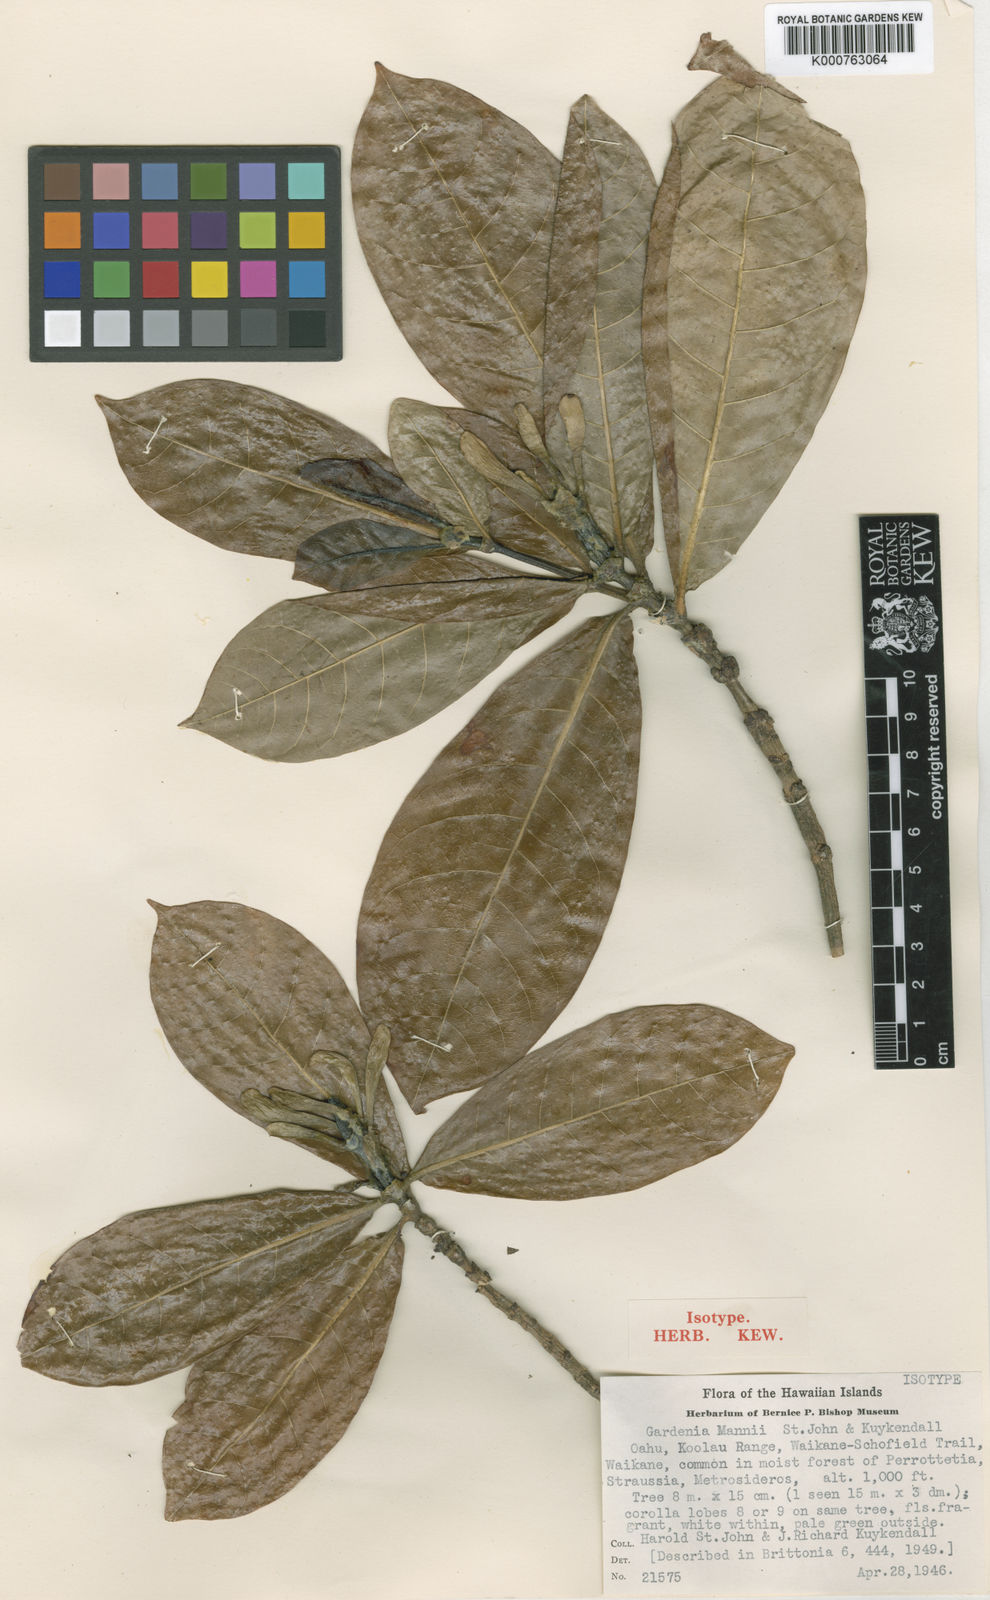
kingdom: Plantae
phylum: Tracheophyta
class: Magnoliopsida
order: Gentianales
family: Rubiaceae
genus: Gardenia
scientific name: Gardenia mannii
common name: Mann's gardenia
